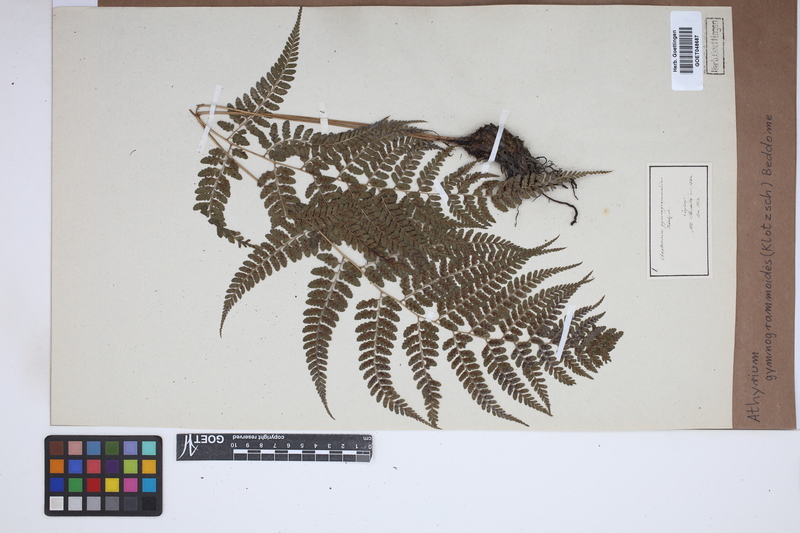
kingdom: Plantae
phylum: Tracheophyta
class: Polypodiopsida
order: Polypodiales
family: Athyriaceae
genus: Athyrium
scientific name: Athyrium gymnogrammoides
